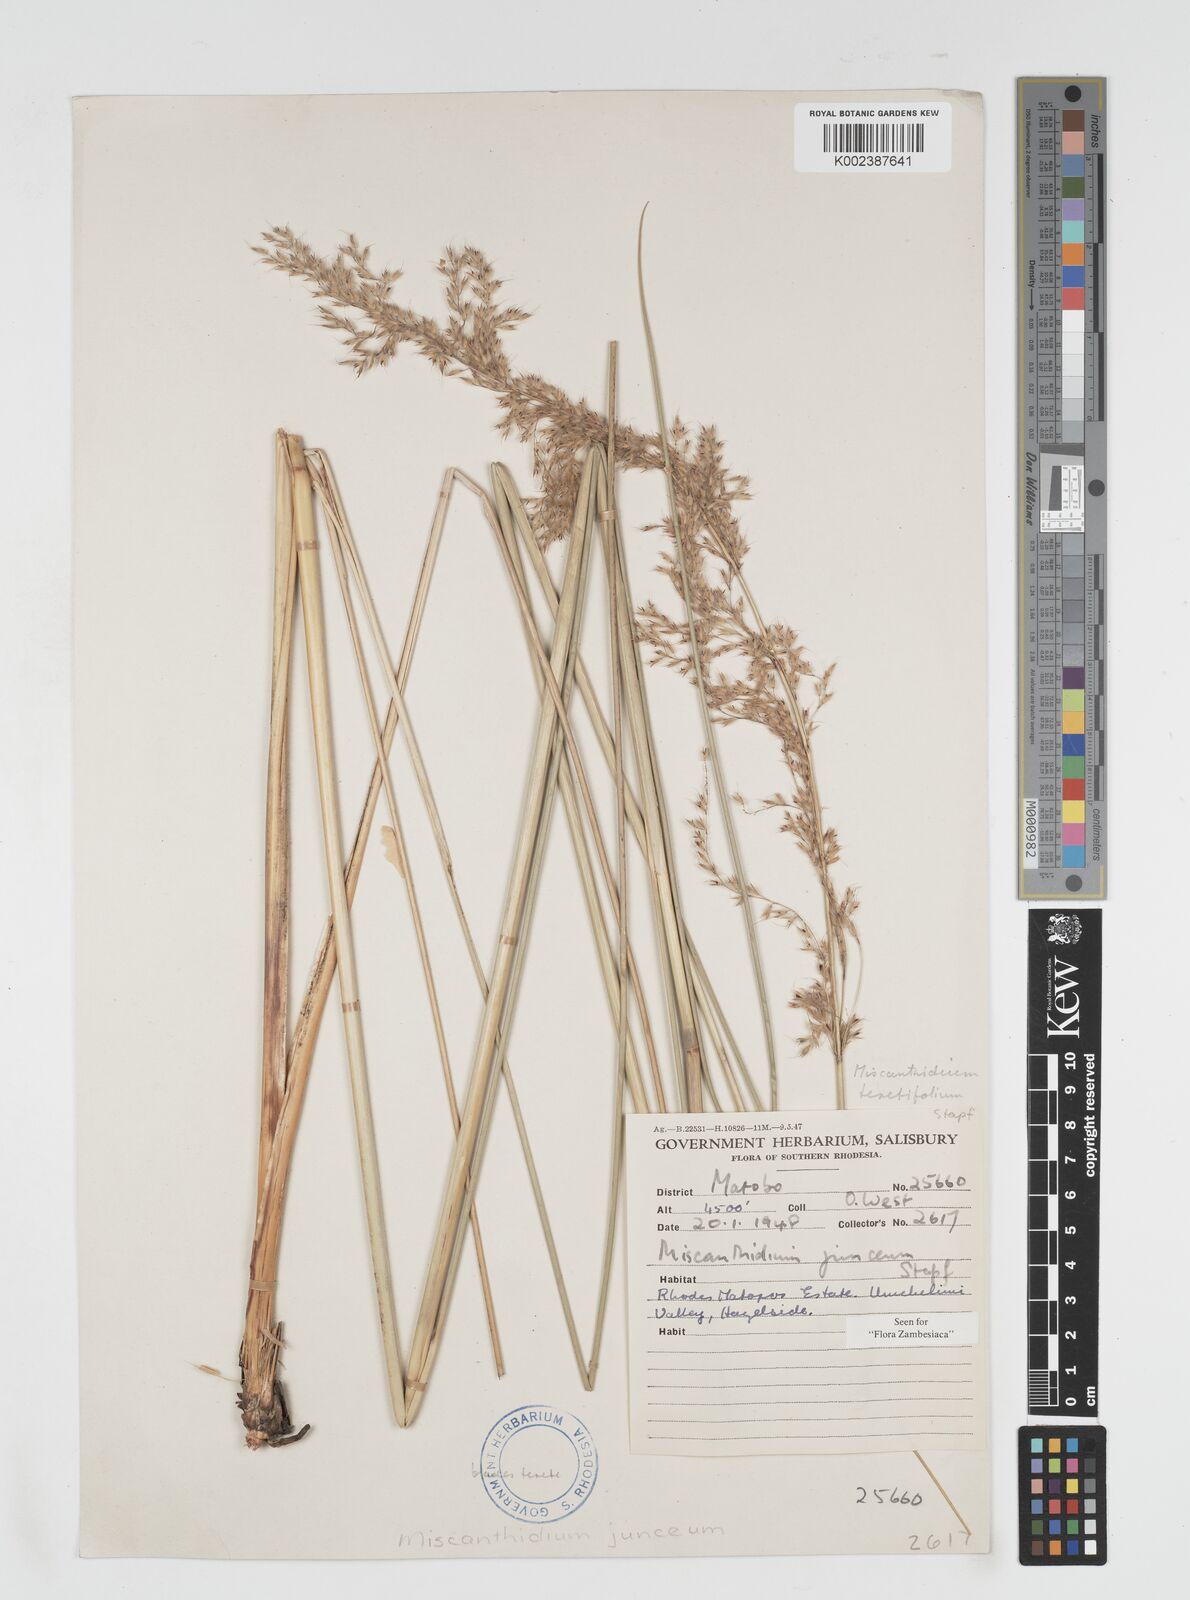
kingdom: Plantae
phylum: Tracheophyta
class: Liliopsida
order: Poales
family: Poaceae
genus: Miscanthidium
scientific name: Miscanthidium junceum
